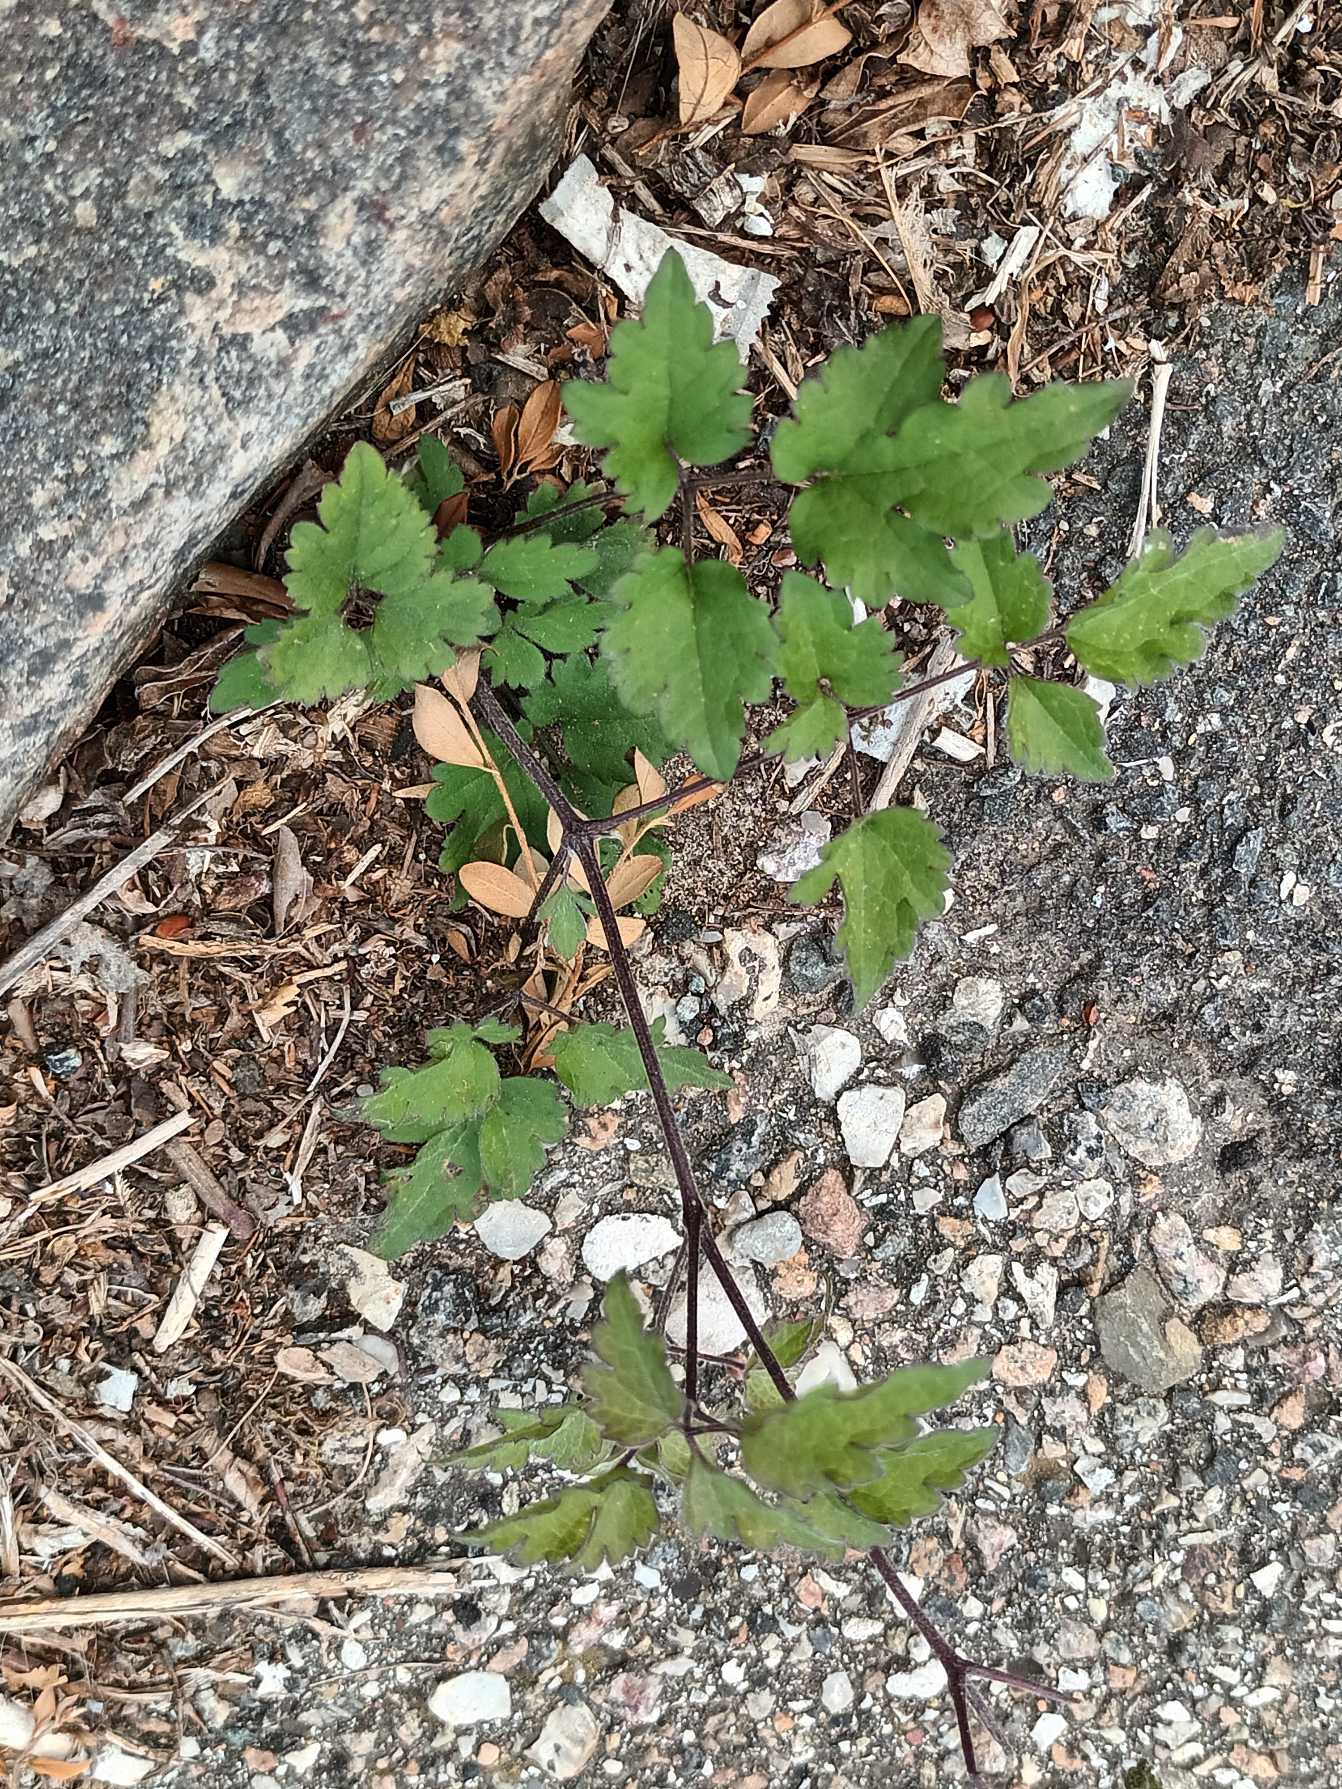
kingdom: Plantae
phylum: Tracheophyta
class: Magnoliopsida
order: Ranunculales
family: Ranunculaceae
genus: Clematis
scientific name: Clematis vitalba
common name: Skovranke
